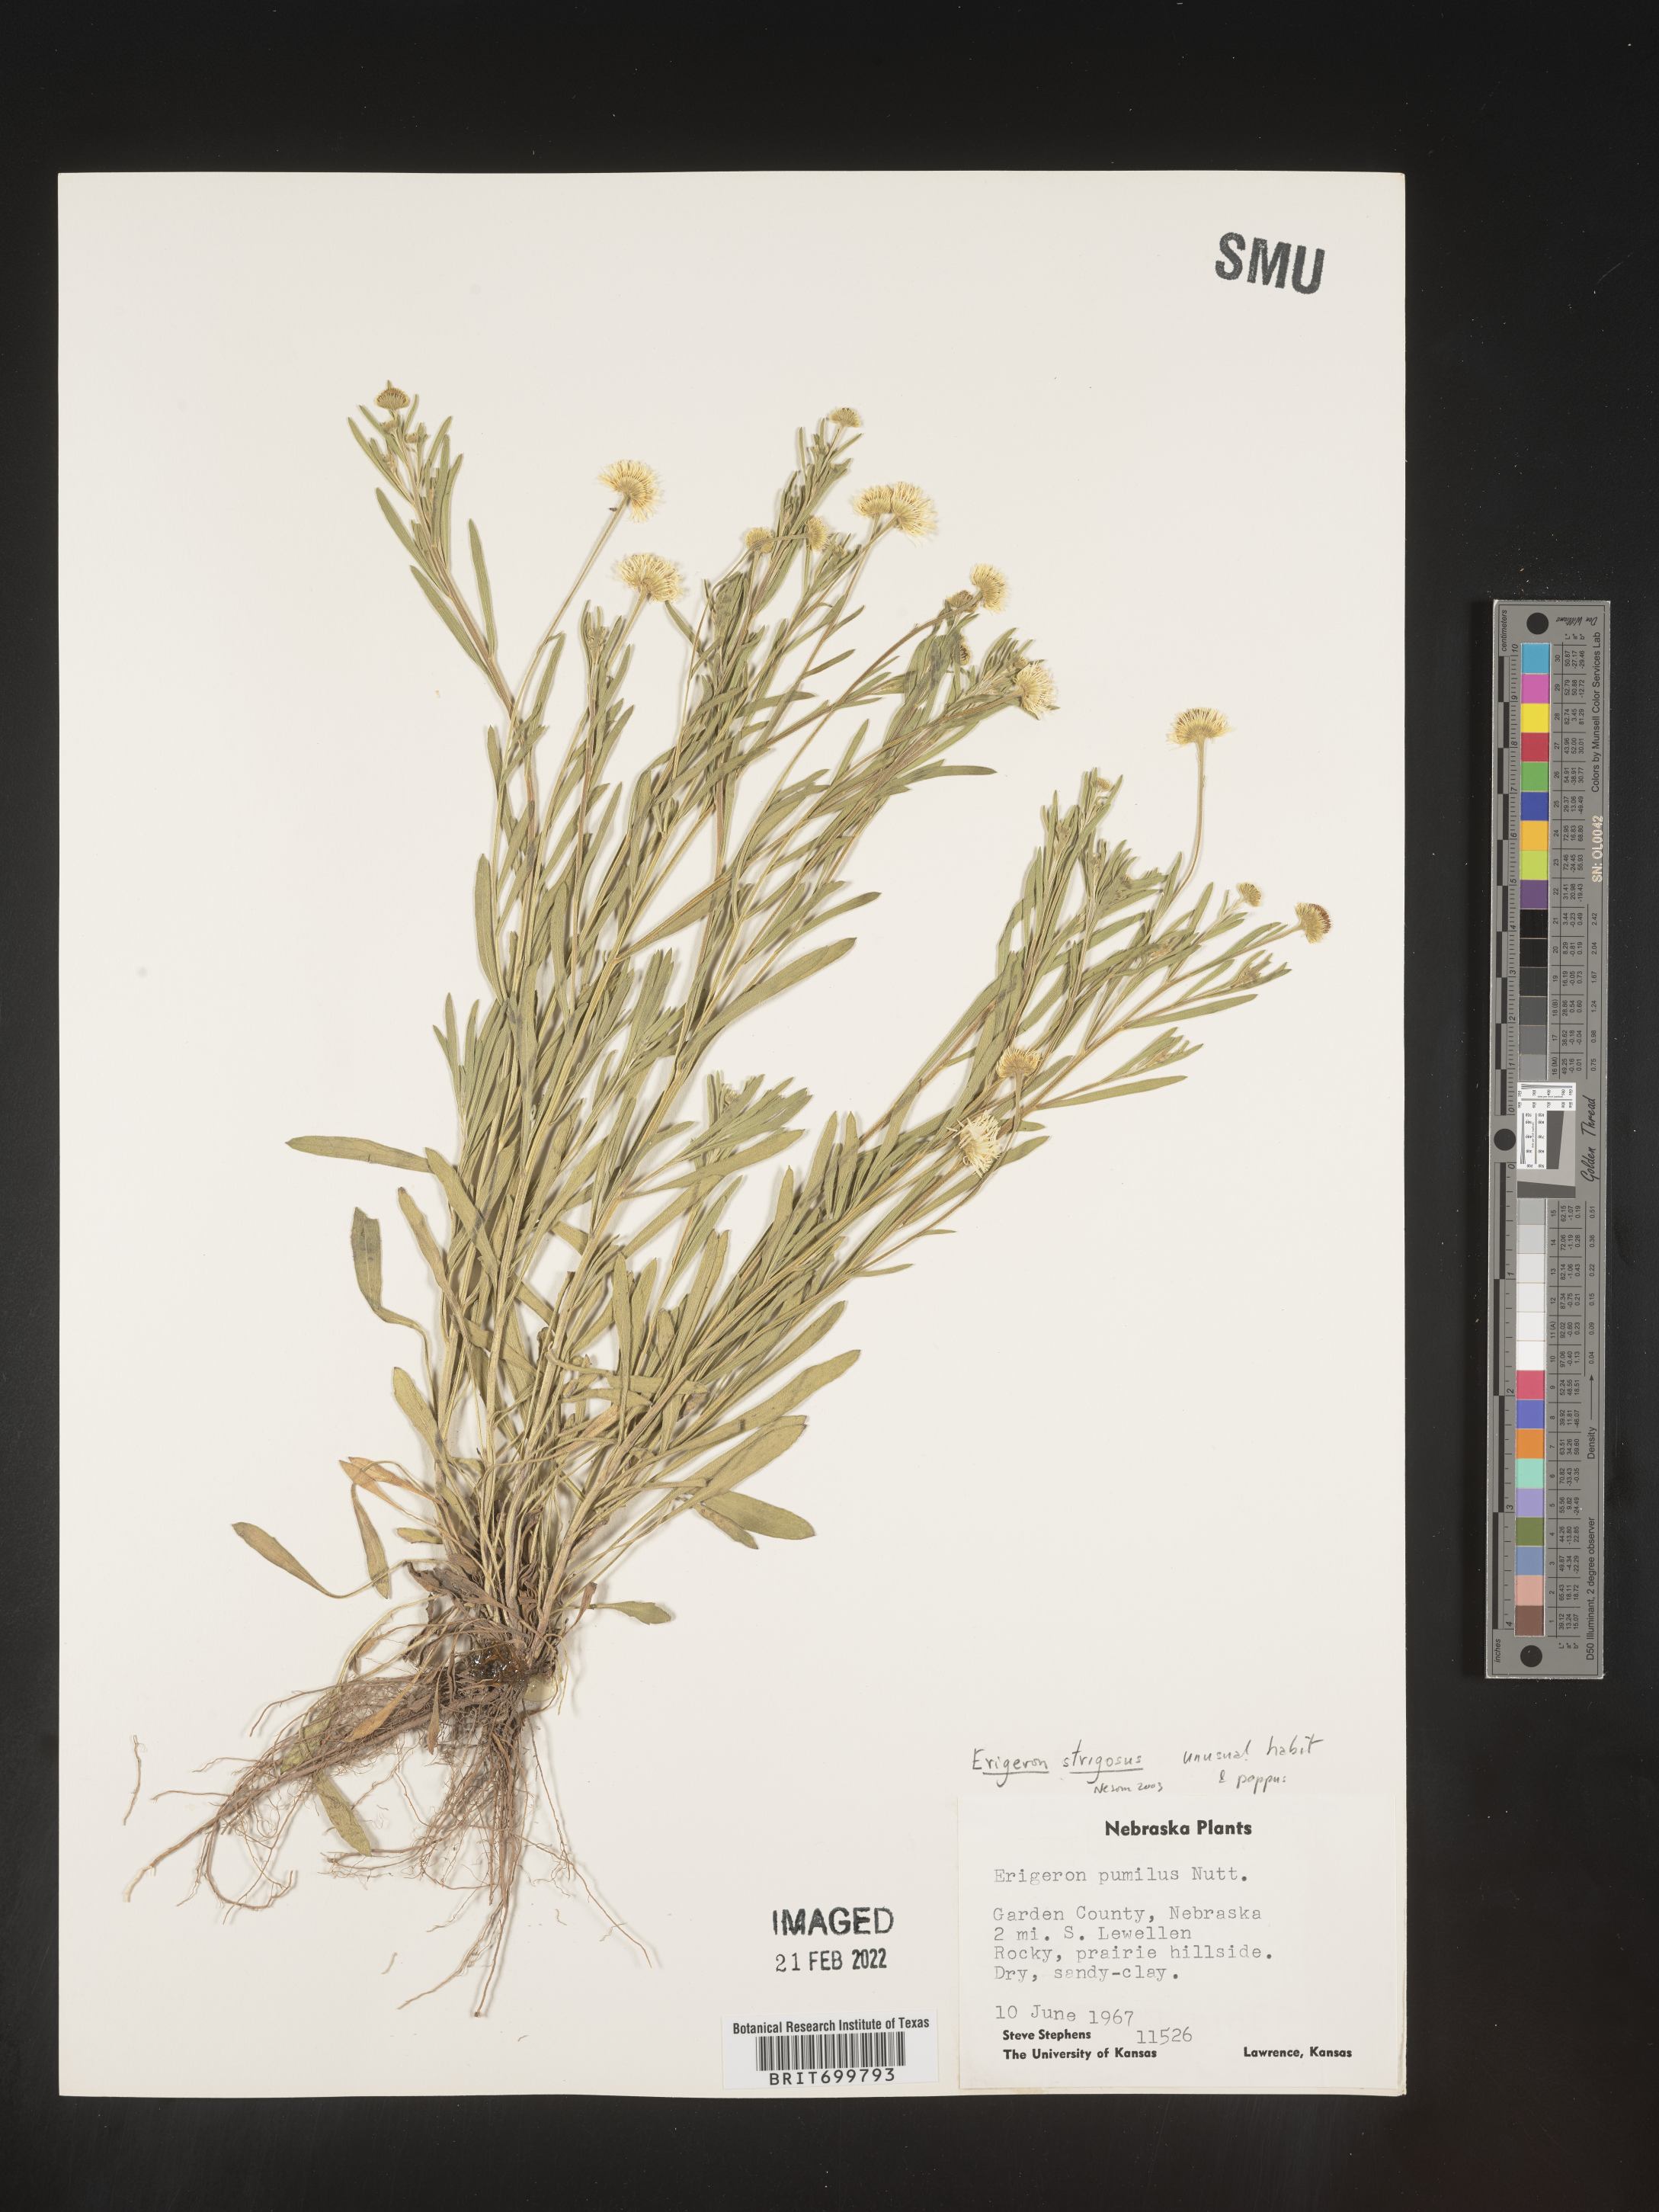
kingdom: Plantae
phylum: Tracheophyta
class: Magnoliopsida
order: Asterales
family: Asteraceae
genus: Erigeron
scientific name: Erigeron strigosus
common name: Common eastern fleabane
